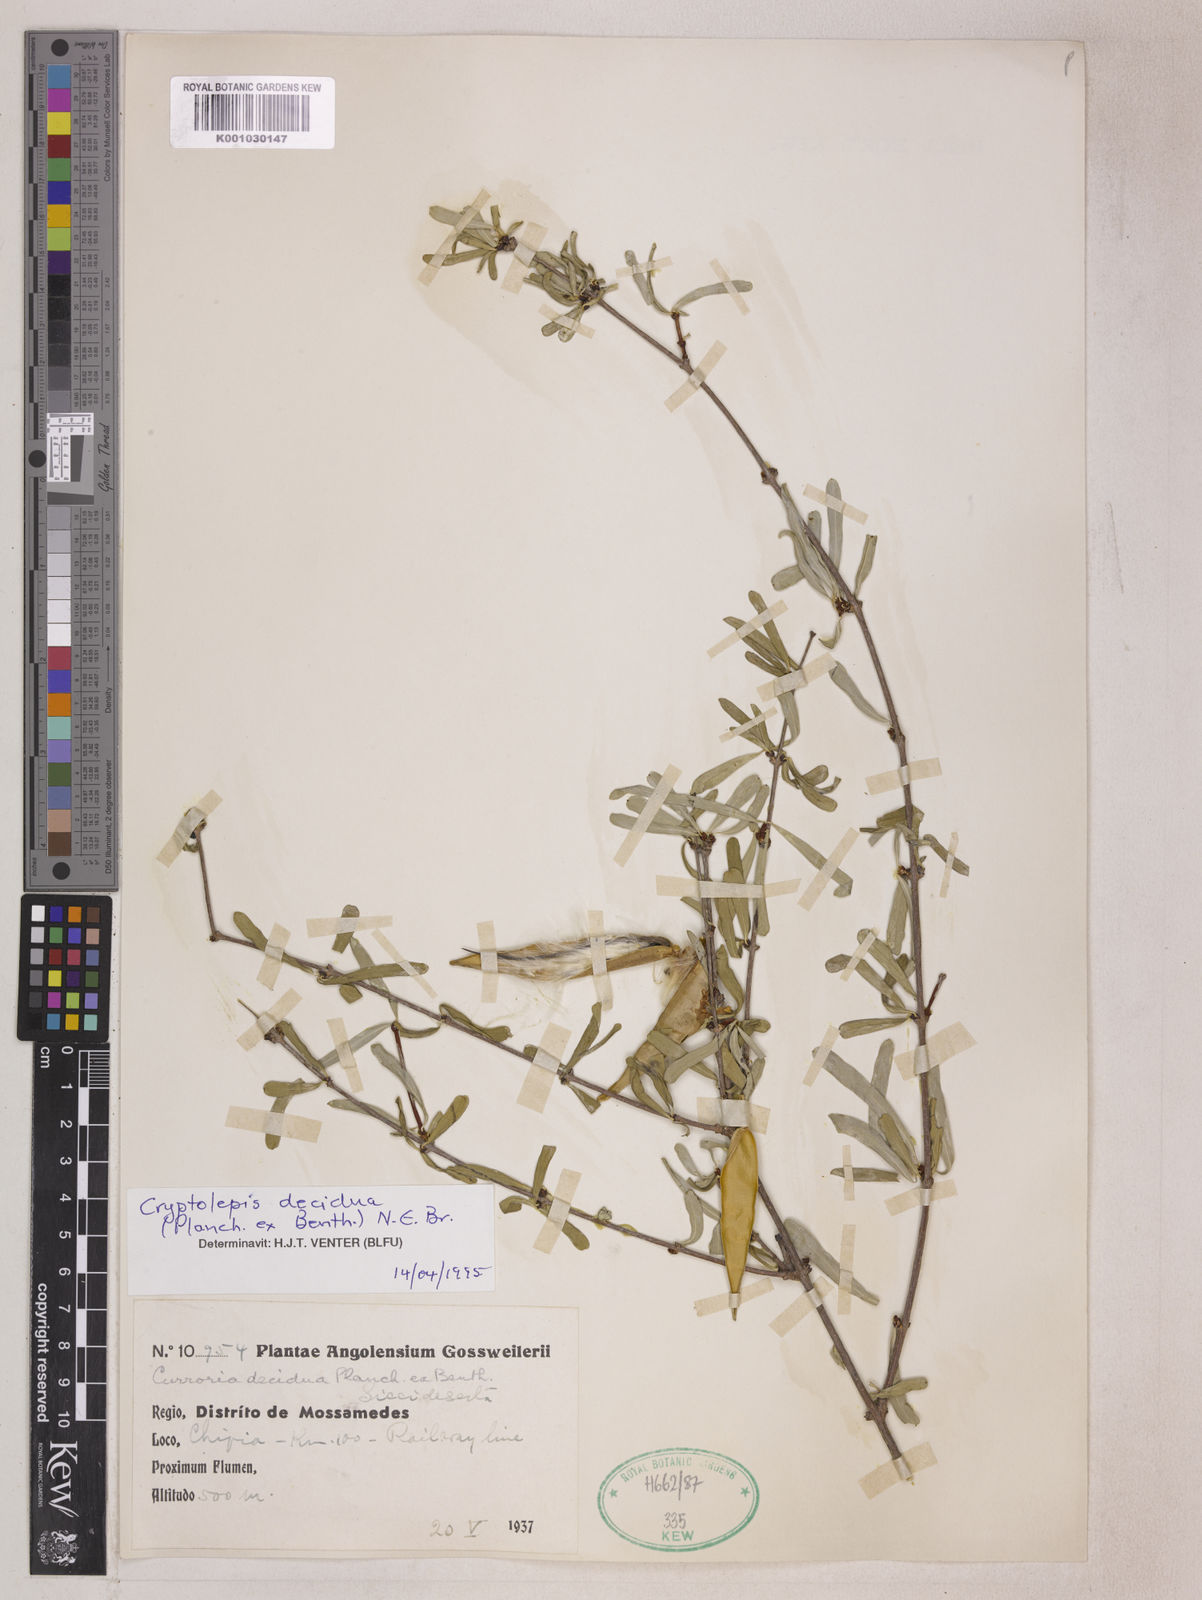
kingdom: Plantae
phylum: Tracheophyta
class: Magnoliopsida
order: Gentianales
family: Apocynaceae
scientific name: Apocynaceae
